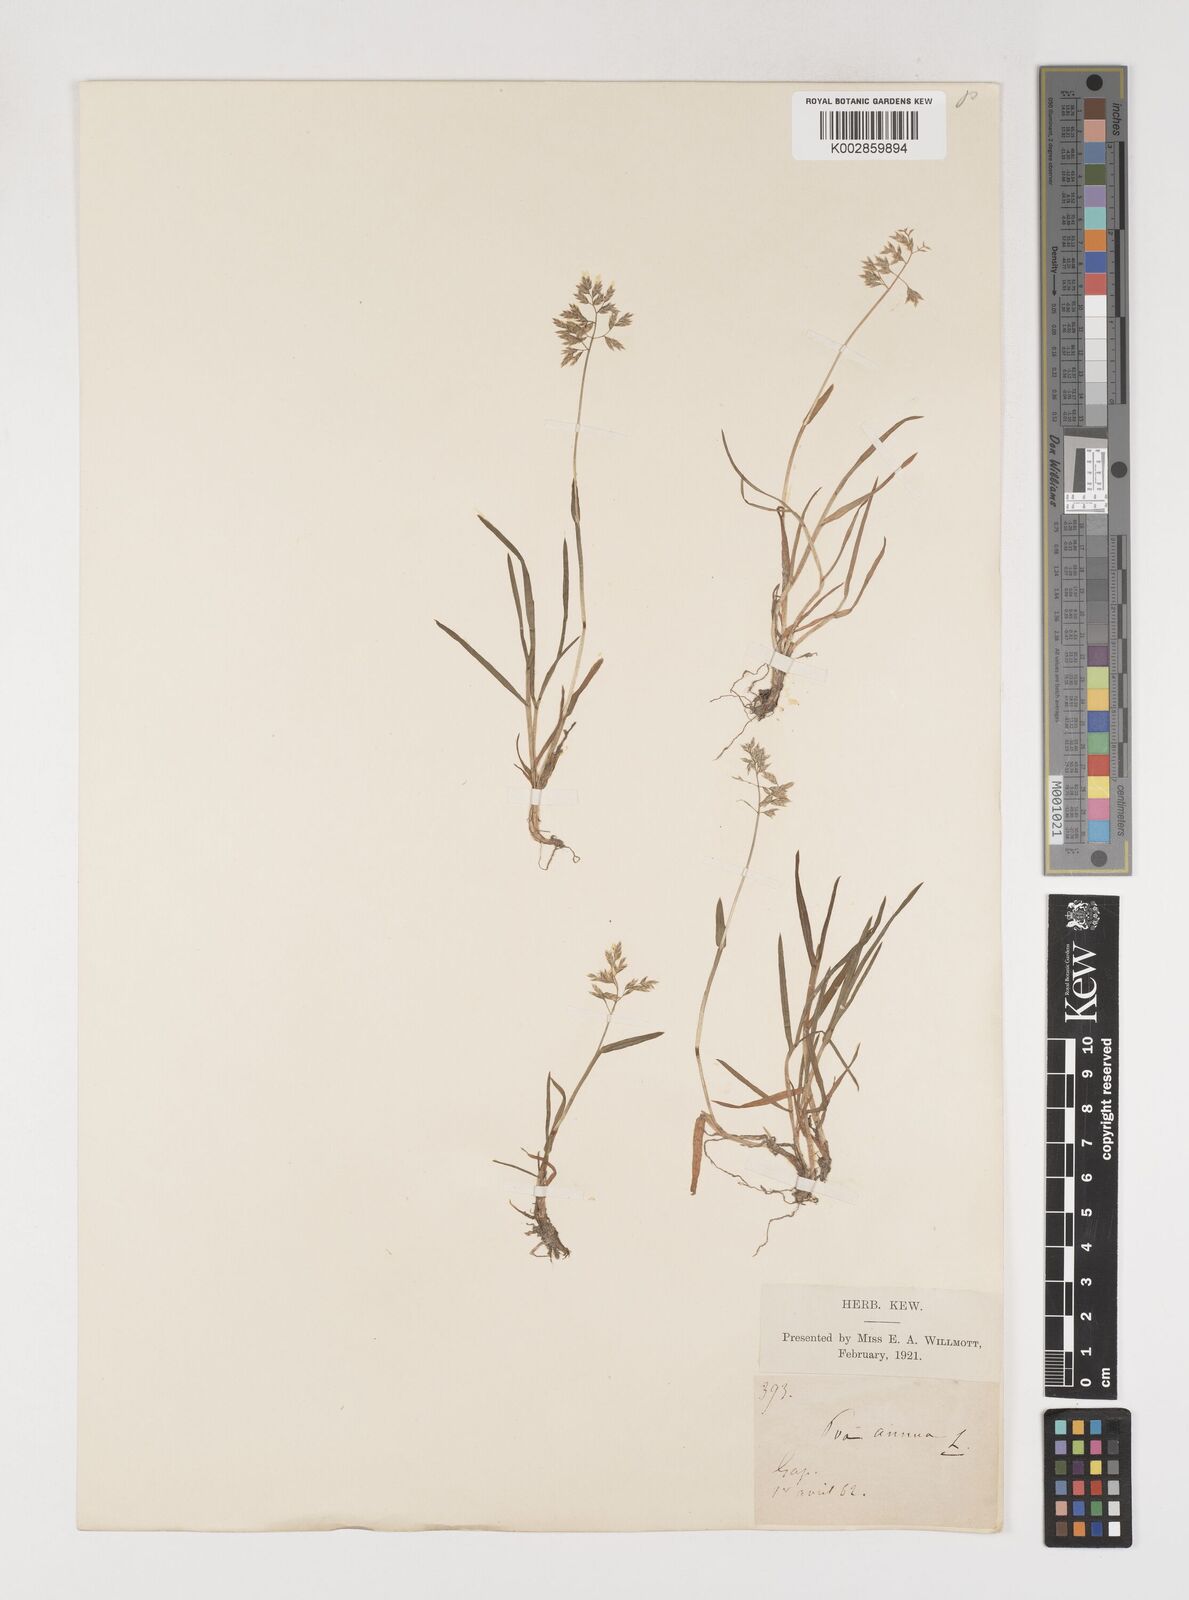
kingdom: Plantae
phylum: Tracheophyta
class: Liliopsida
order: Poales
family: Poaceae
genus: Poa
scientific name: Poa annua
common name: Annual bluegrass
